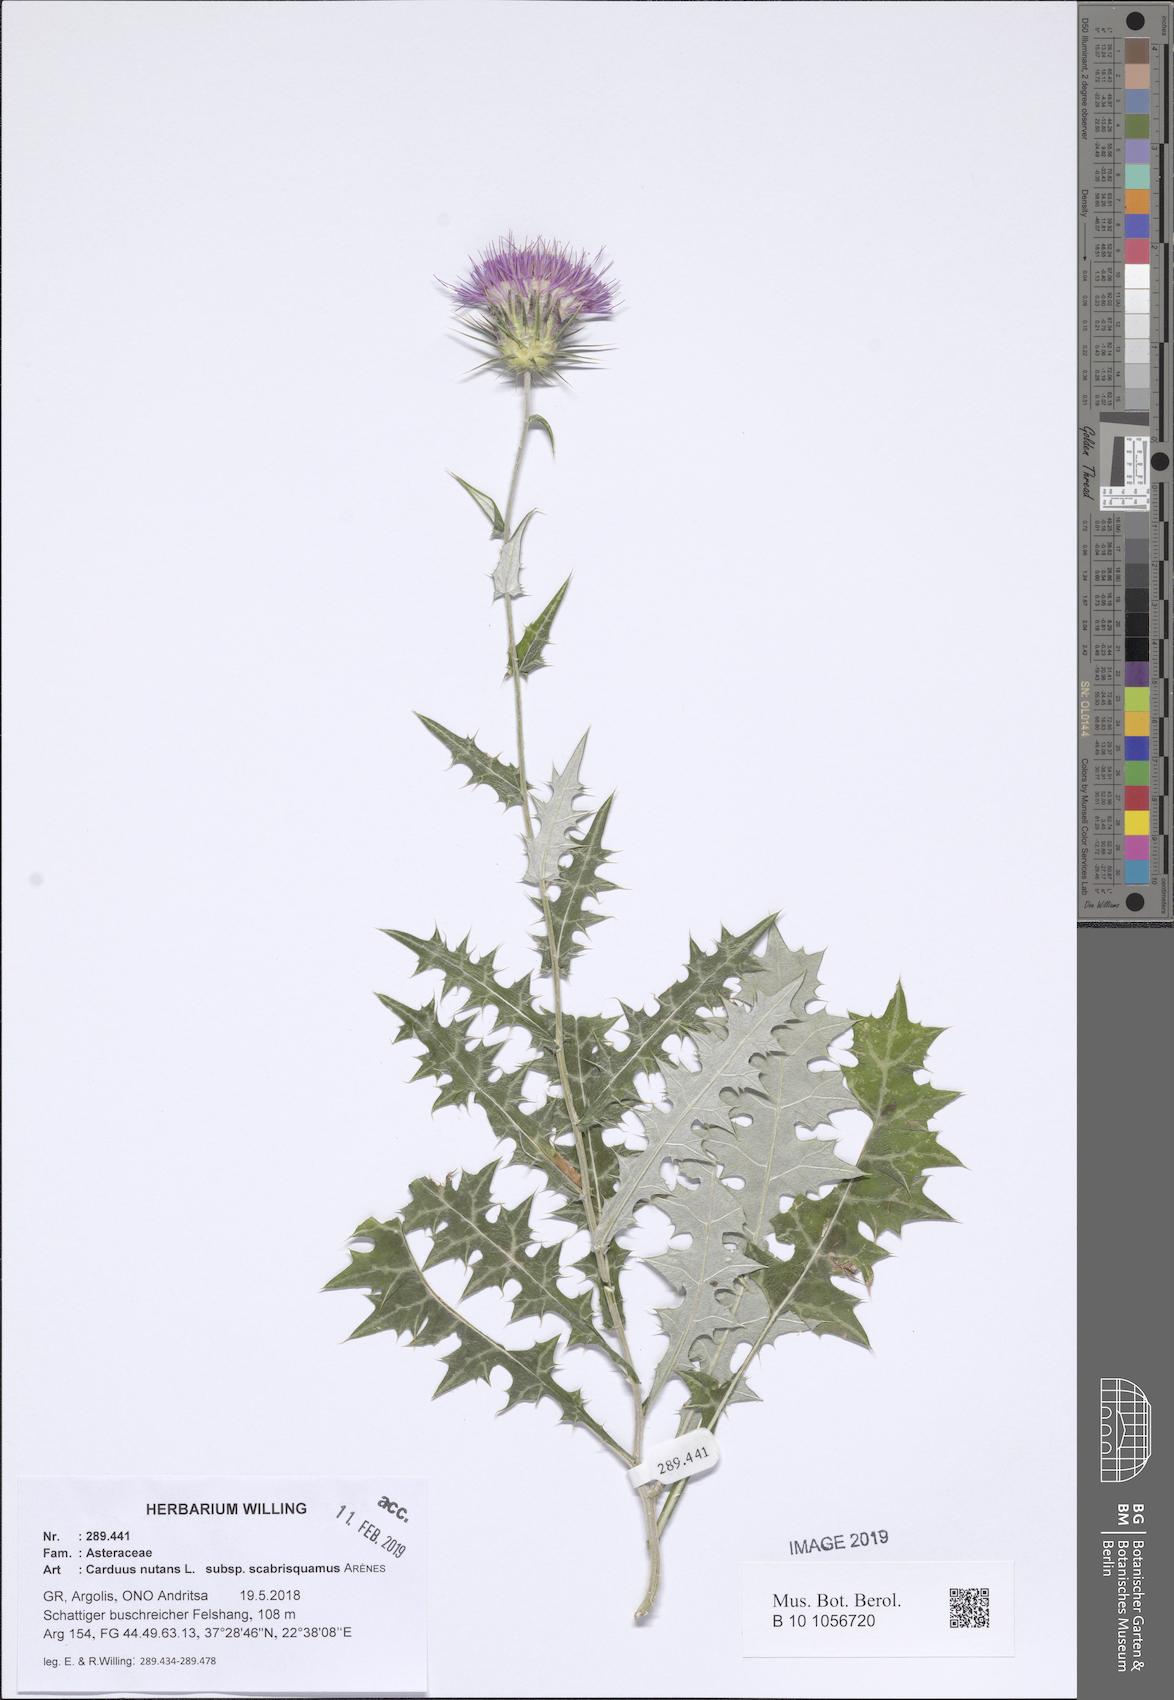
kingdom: Plantae
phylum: Tracheophyta
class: Magnoliopsida
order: Asterales
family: Asteraceae
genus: Carduus
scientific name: Carduus macrocephalus
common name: Giant thistle
